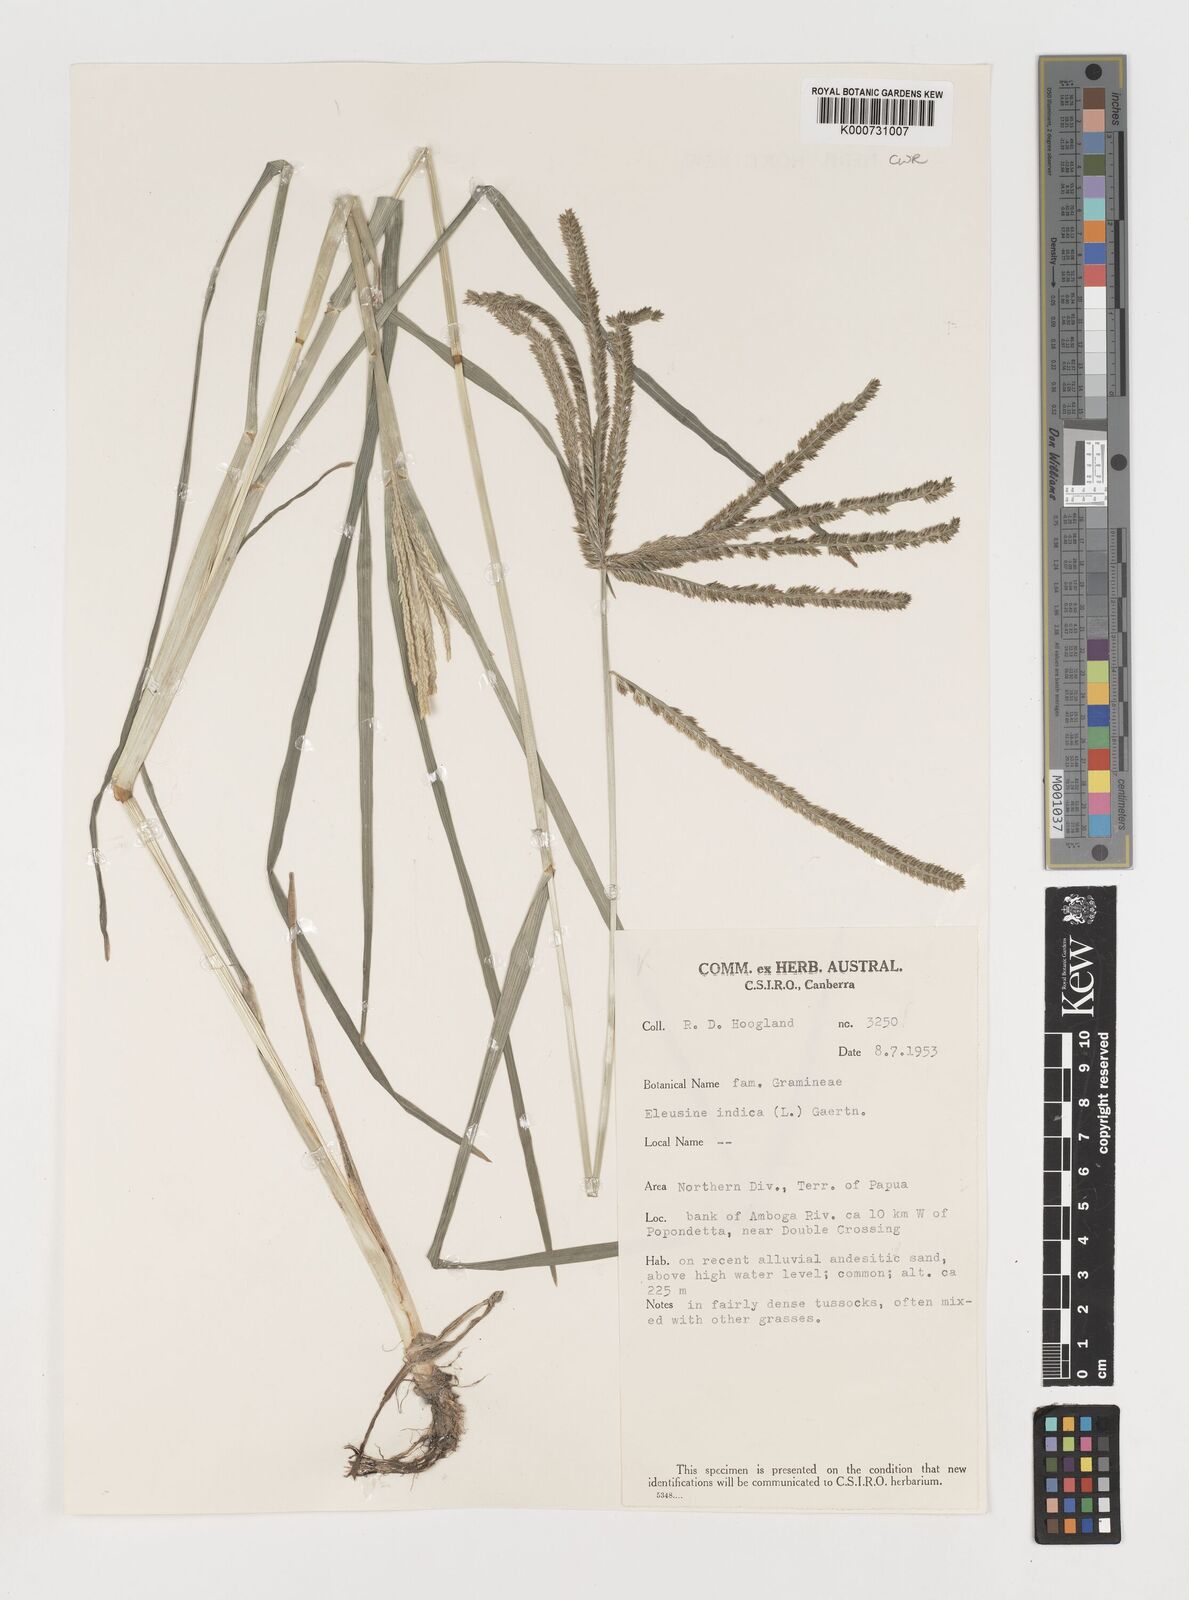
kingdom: Plantae
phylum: Tracheophyta
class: Liliopsida
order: Poales
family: Poaceae
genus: Eleusine
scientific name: Eleusine indica
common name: Yard-grass
